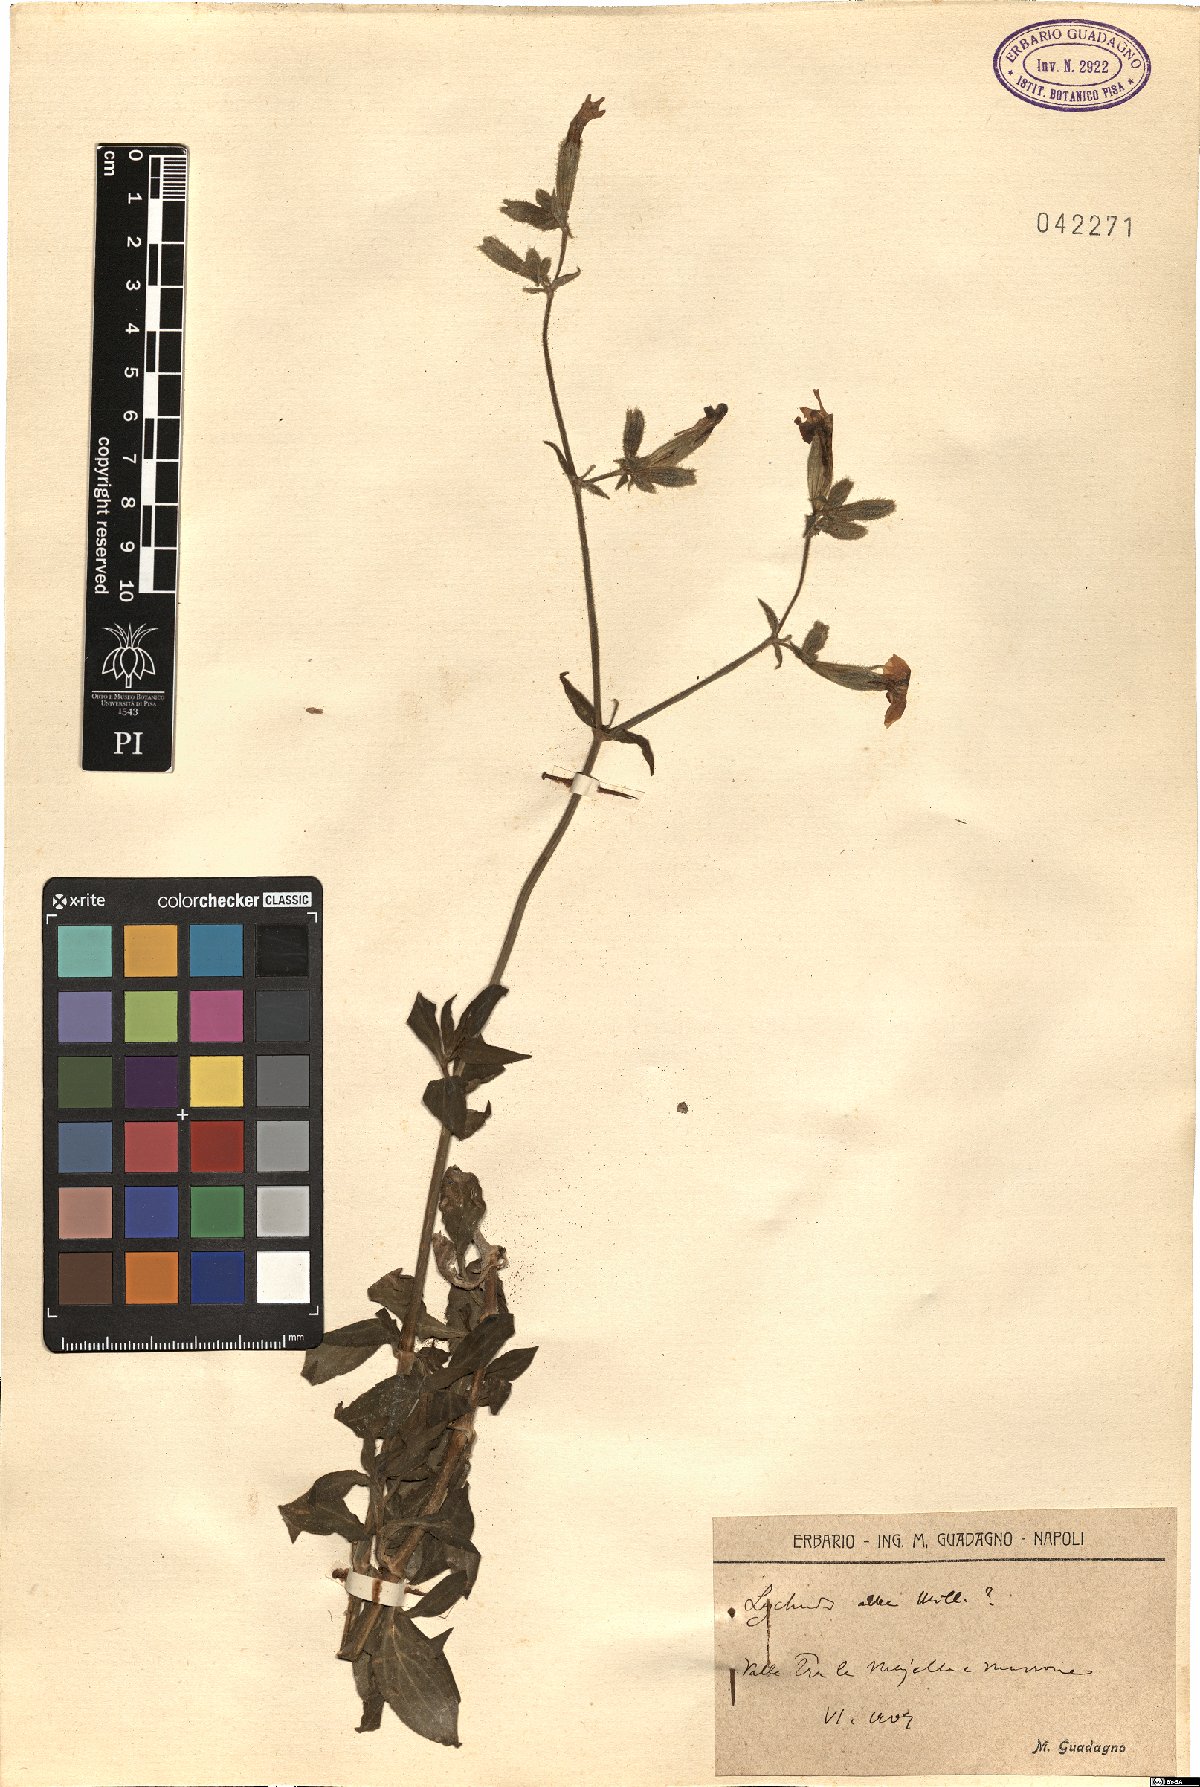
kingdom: Plantae
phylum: Tracheophyta
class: Magnoliopsida
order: Caryophyllales
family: Caryophyllaceae
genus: Silene
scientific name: Silene latifolia
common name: White campion
